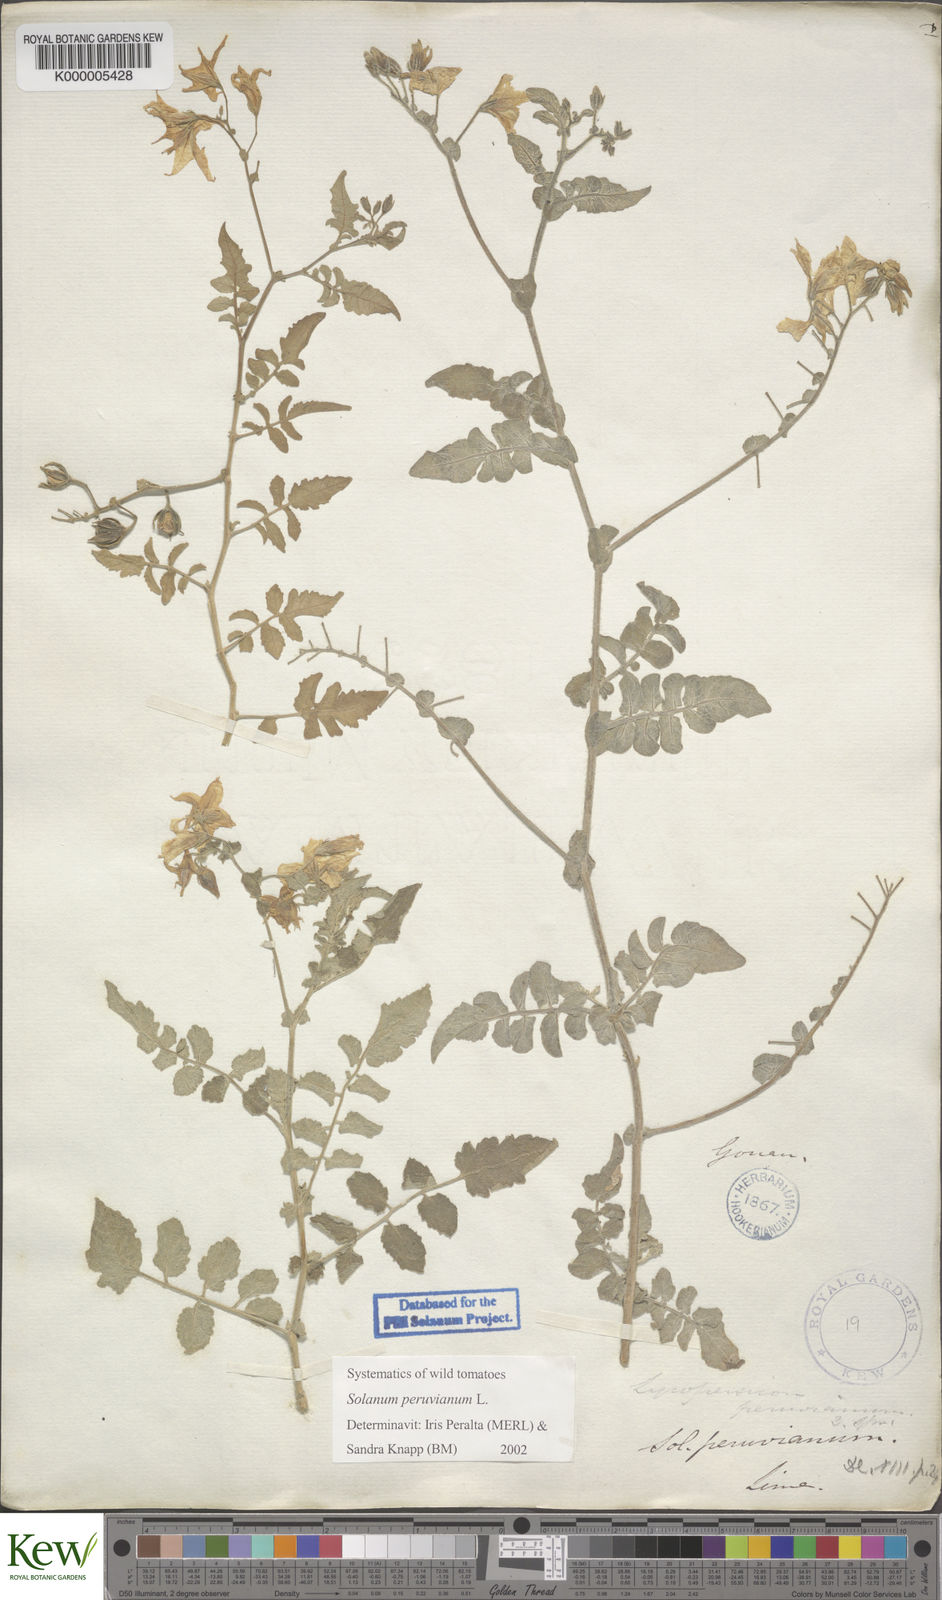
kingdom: Plantae
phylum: Tracheophyta
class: Magnoliopsida
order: Solanales
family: Solanaceae
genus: Solanum
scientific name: Solanum peruvianum
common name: Peruvian nightshade
